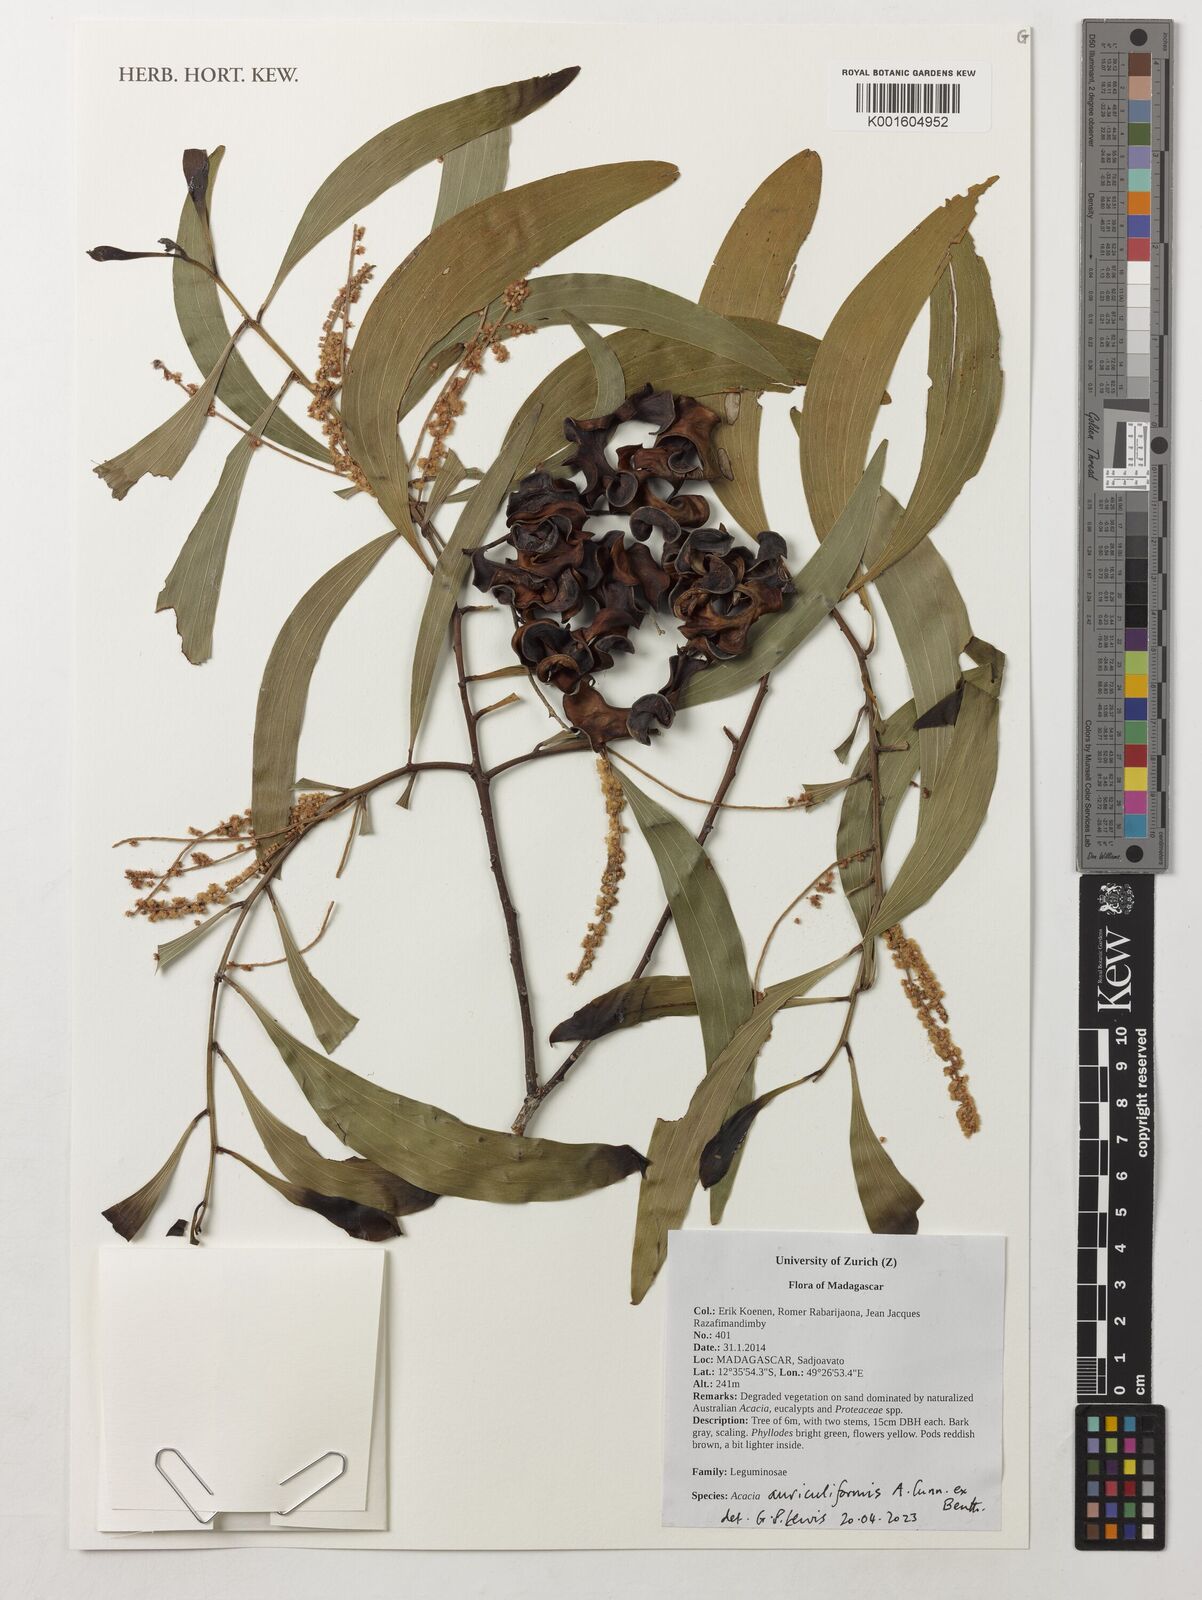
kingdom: Plantae
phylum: Tracheophyta
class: Magnoliopsida
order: Fabales
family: Fabaceae
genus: Acacia
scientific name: Acacia auriculiformis
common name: Earleaf acacia
